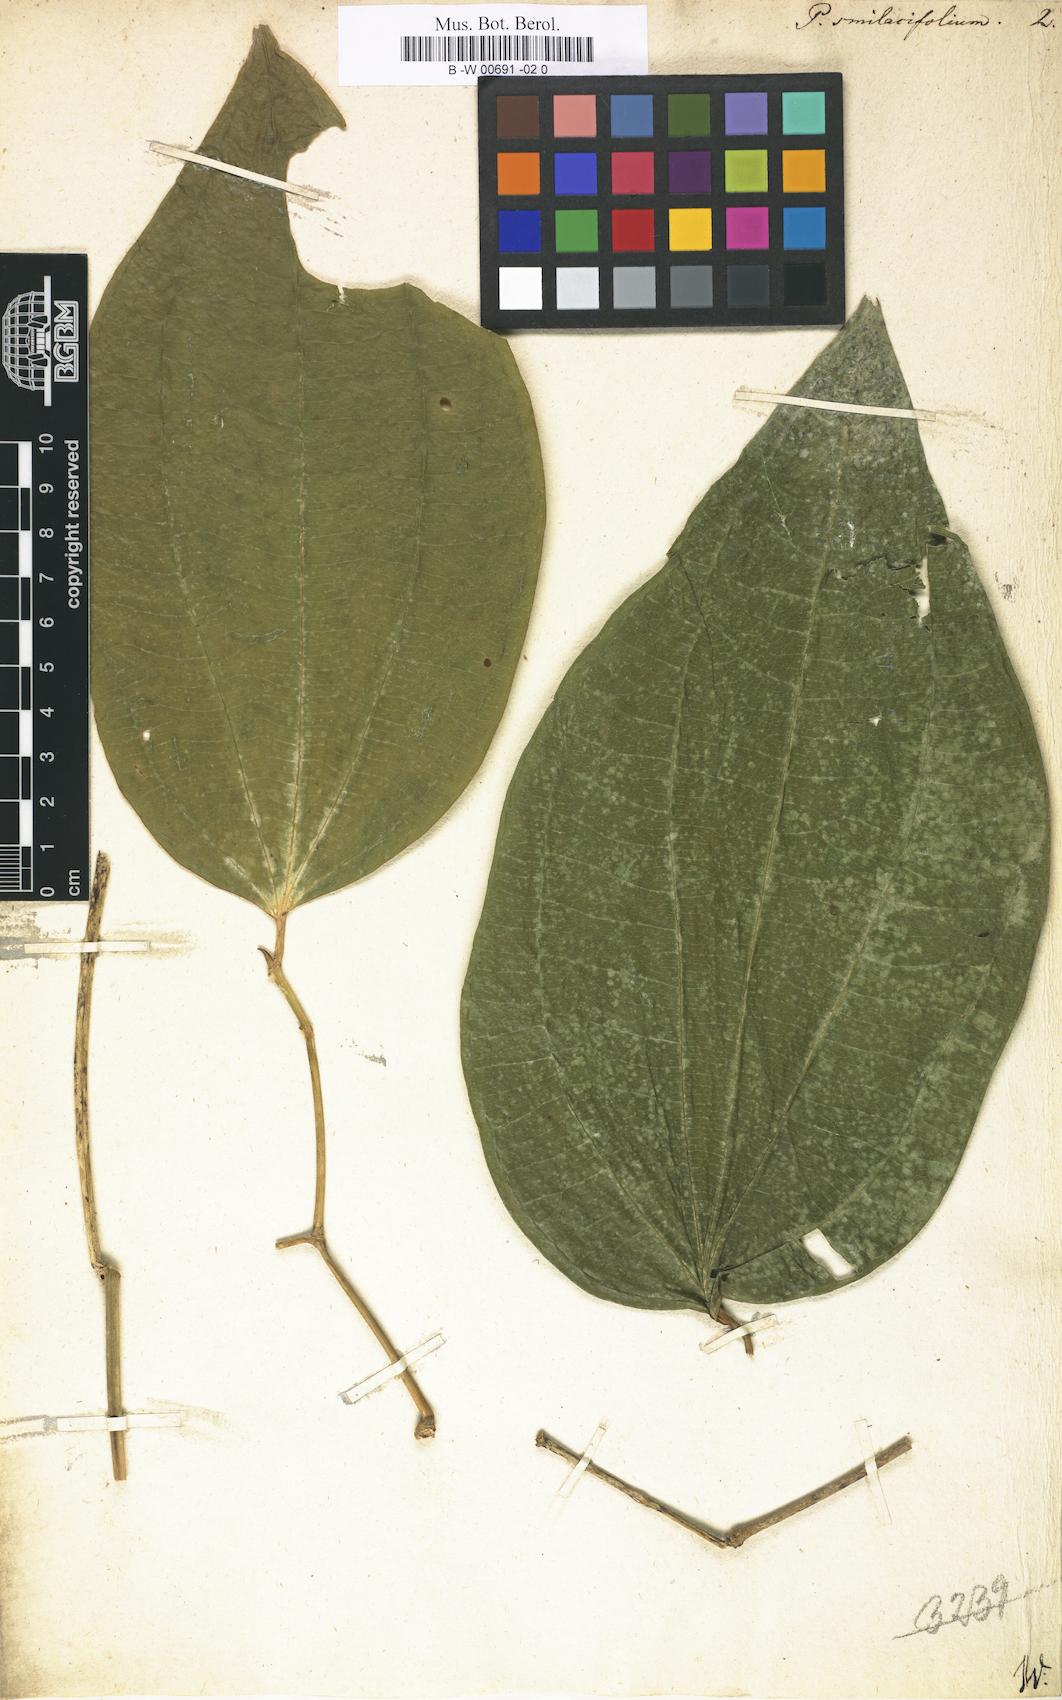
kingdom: Plantae
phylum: Tracheophyta
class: Magnoliopsida
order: Piperales
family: Piperaceae
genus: Piper
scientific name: Piper laevigatum
